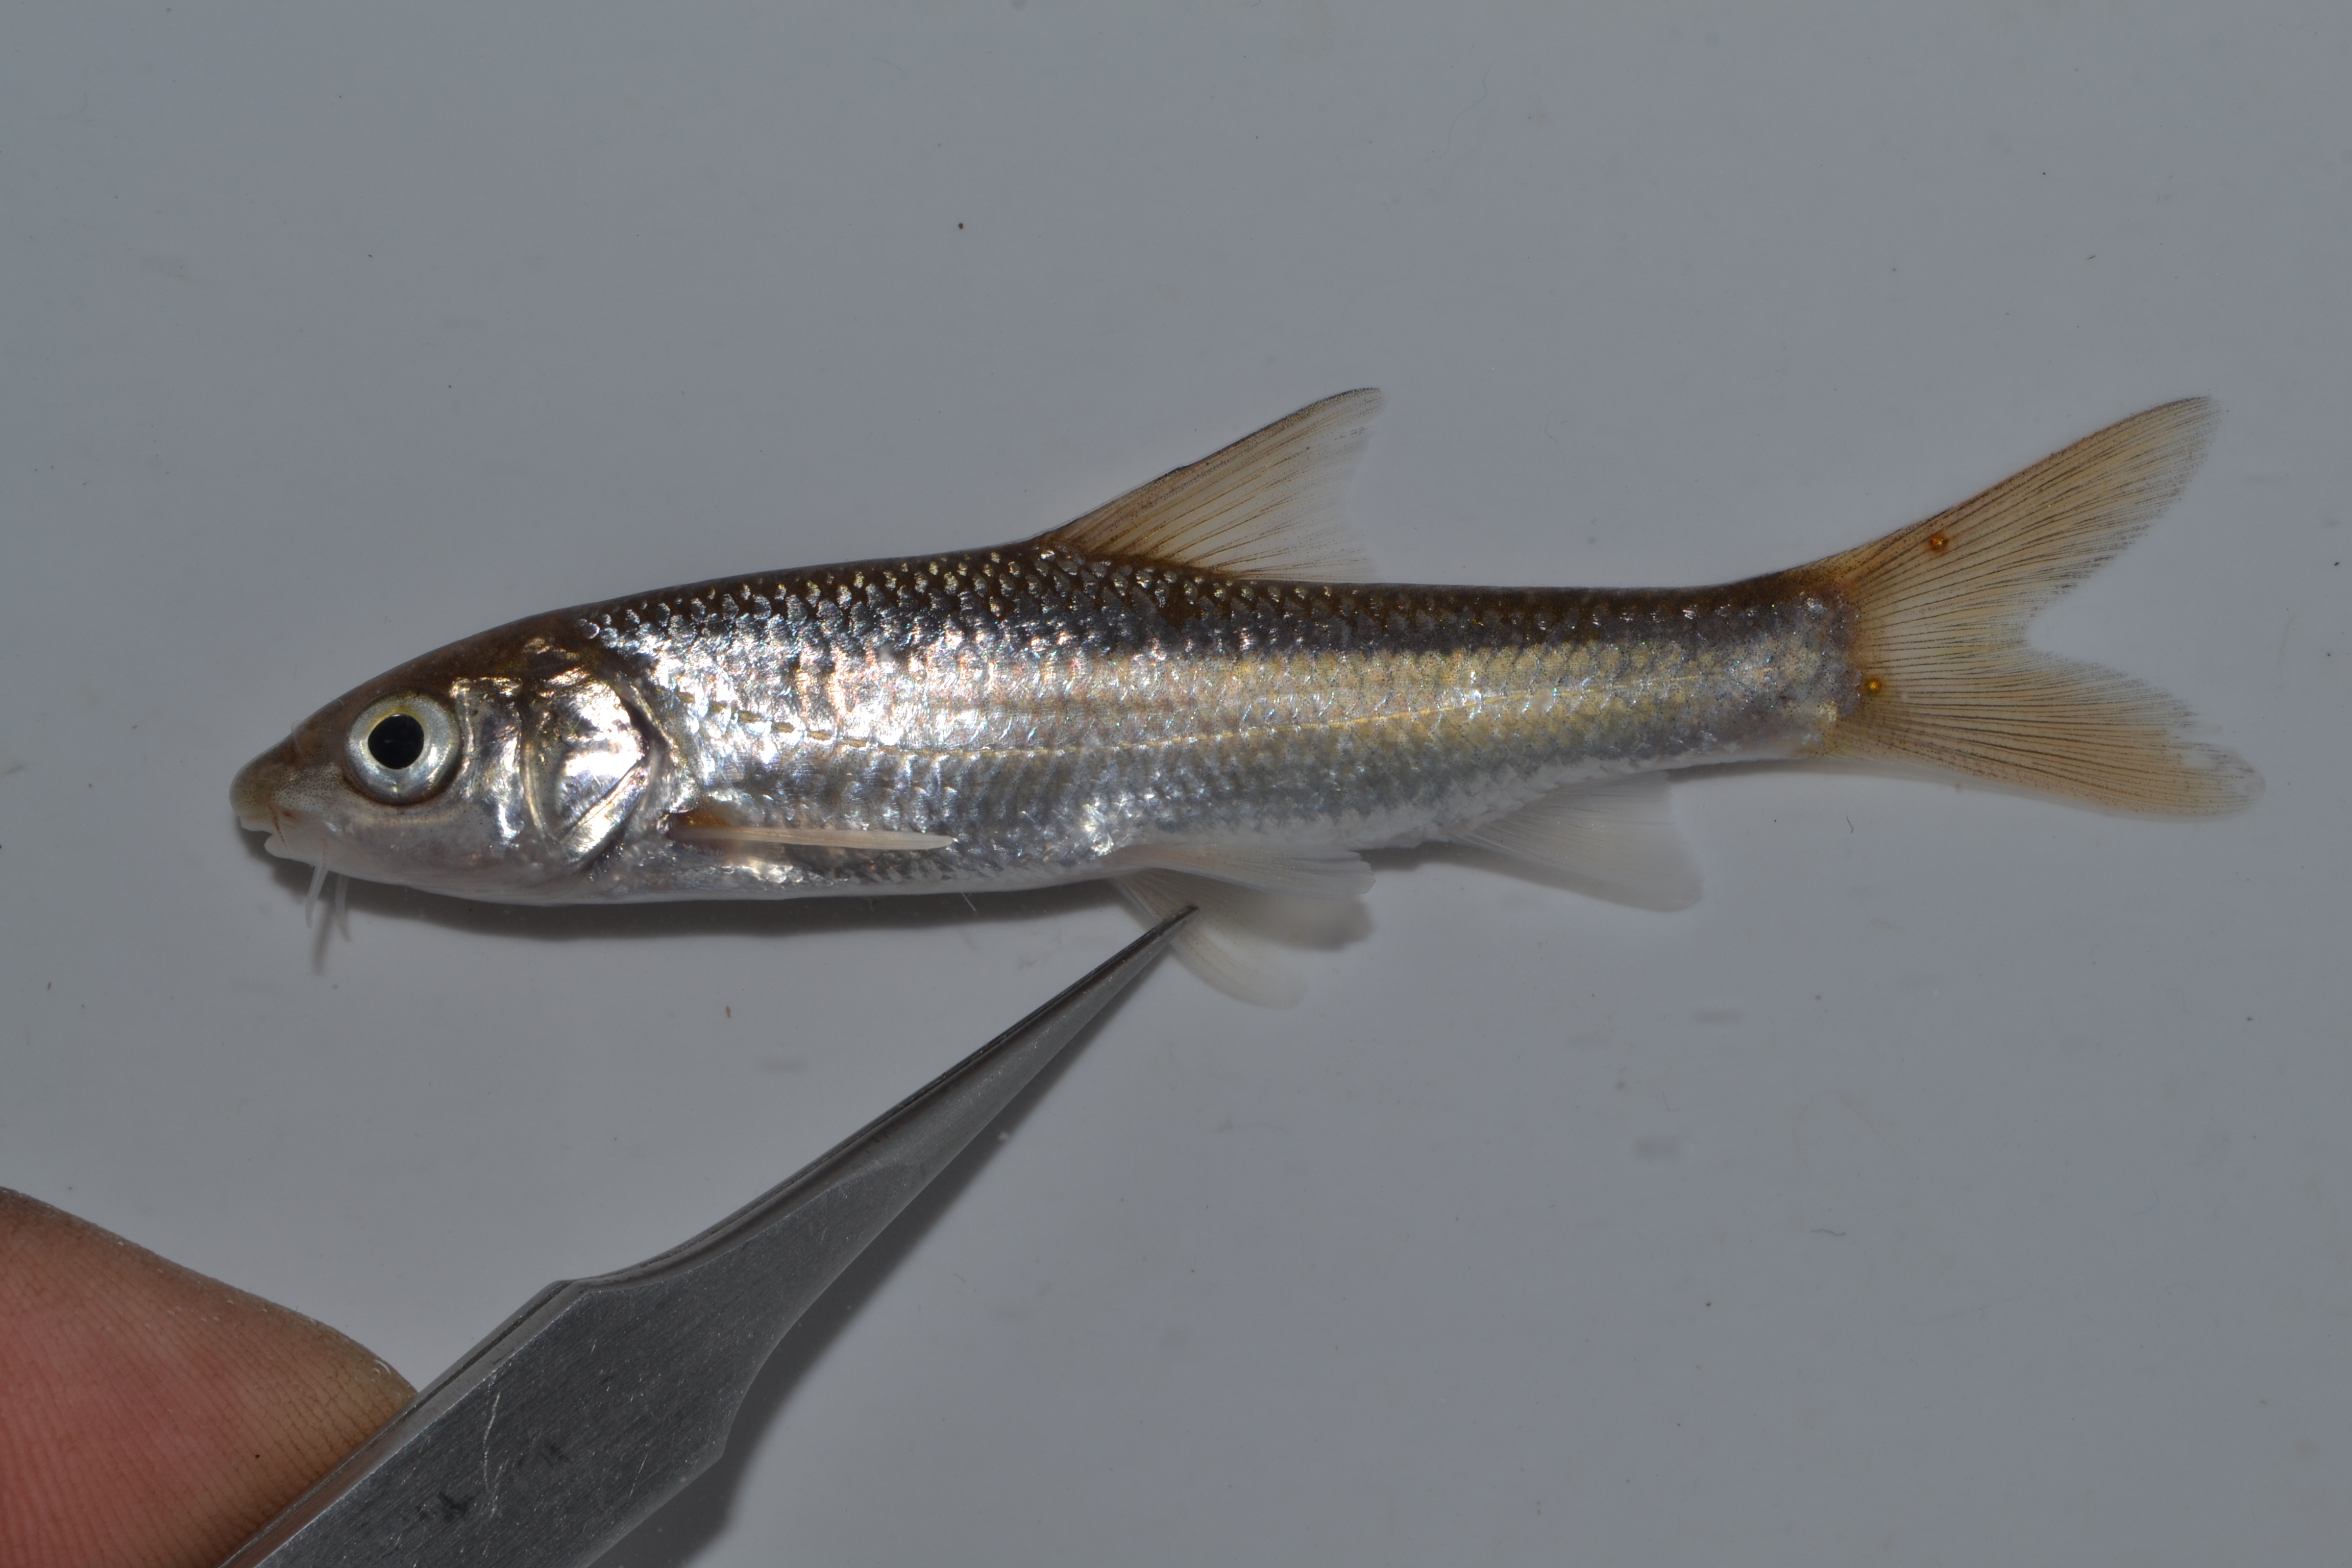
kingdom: Animalia
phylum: Chordata
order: Cypriniformes
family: Cyprinidae
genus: Labeobarbus
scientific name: Labeobarbus natalensis
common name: Scaly
